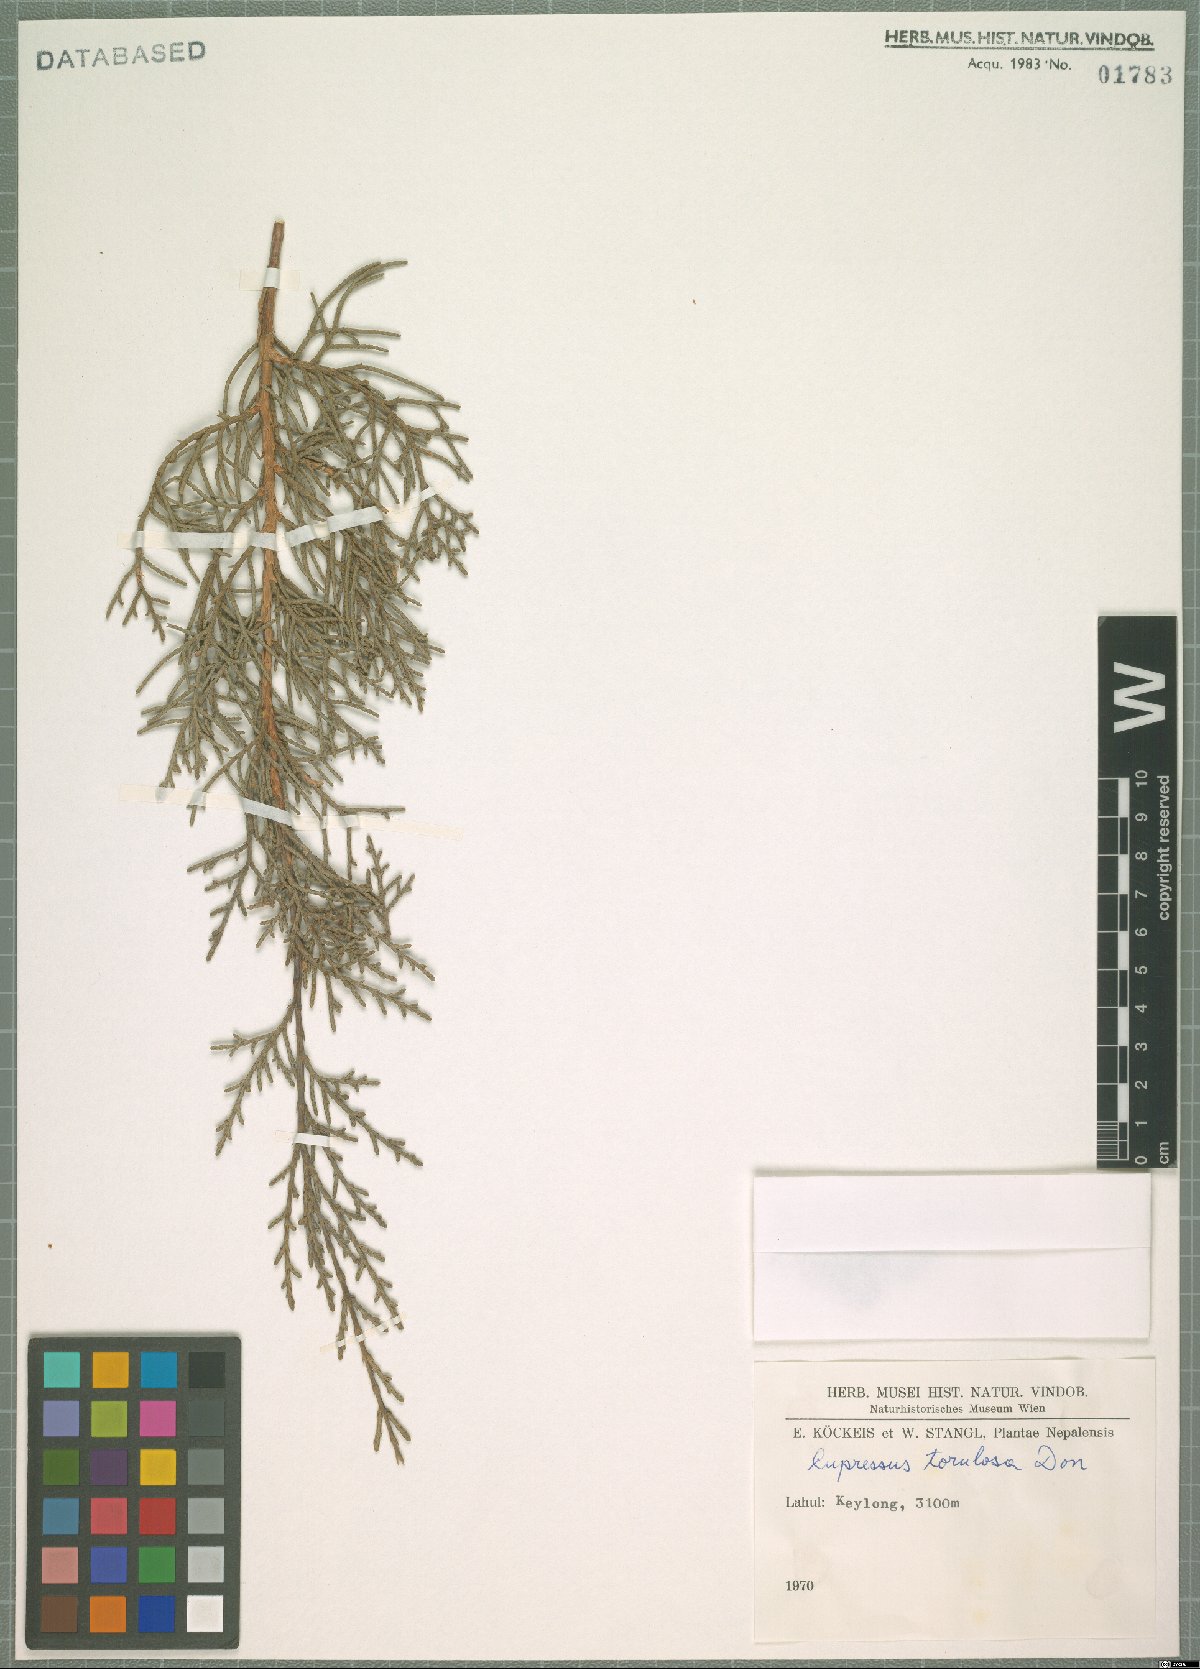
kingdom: Plantae
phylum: Tracheophyta
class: Pinopsida
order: Pinales
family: Cupressaceae
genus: Cupressus
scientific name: Cupressus torulosa
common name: Himalayan cypress
